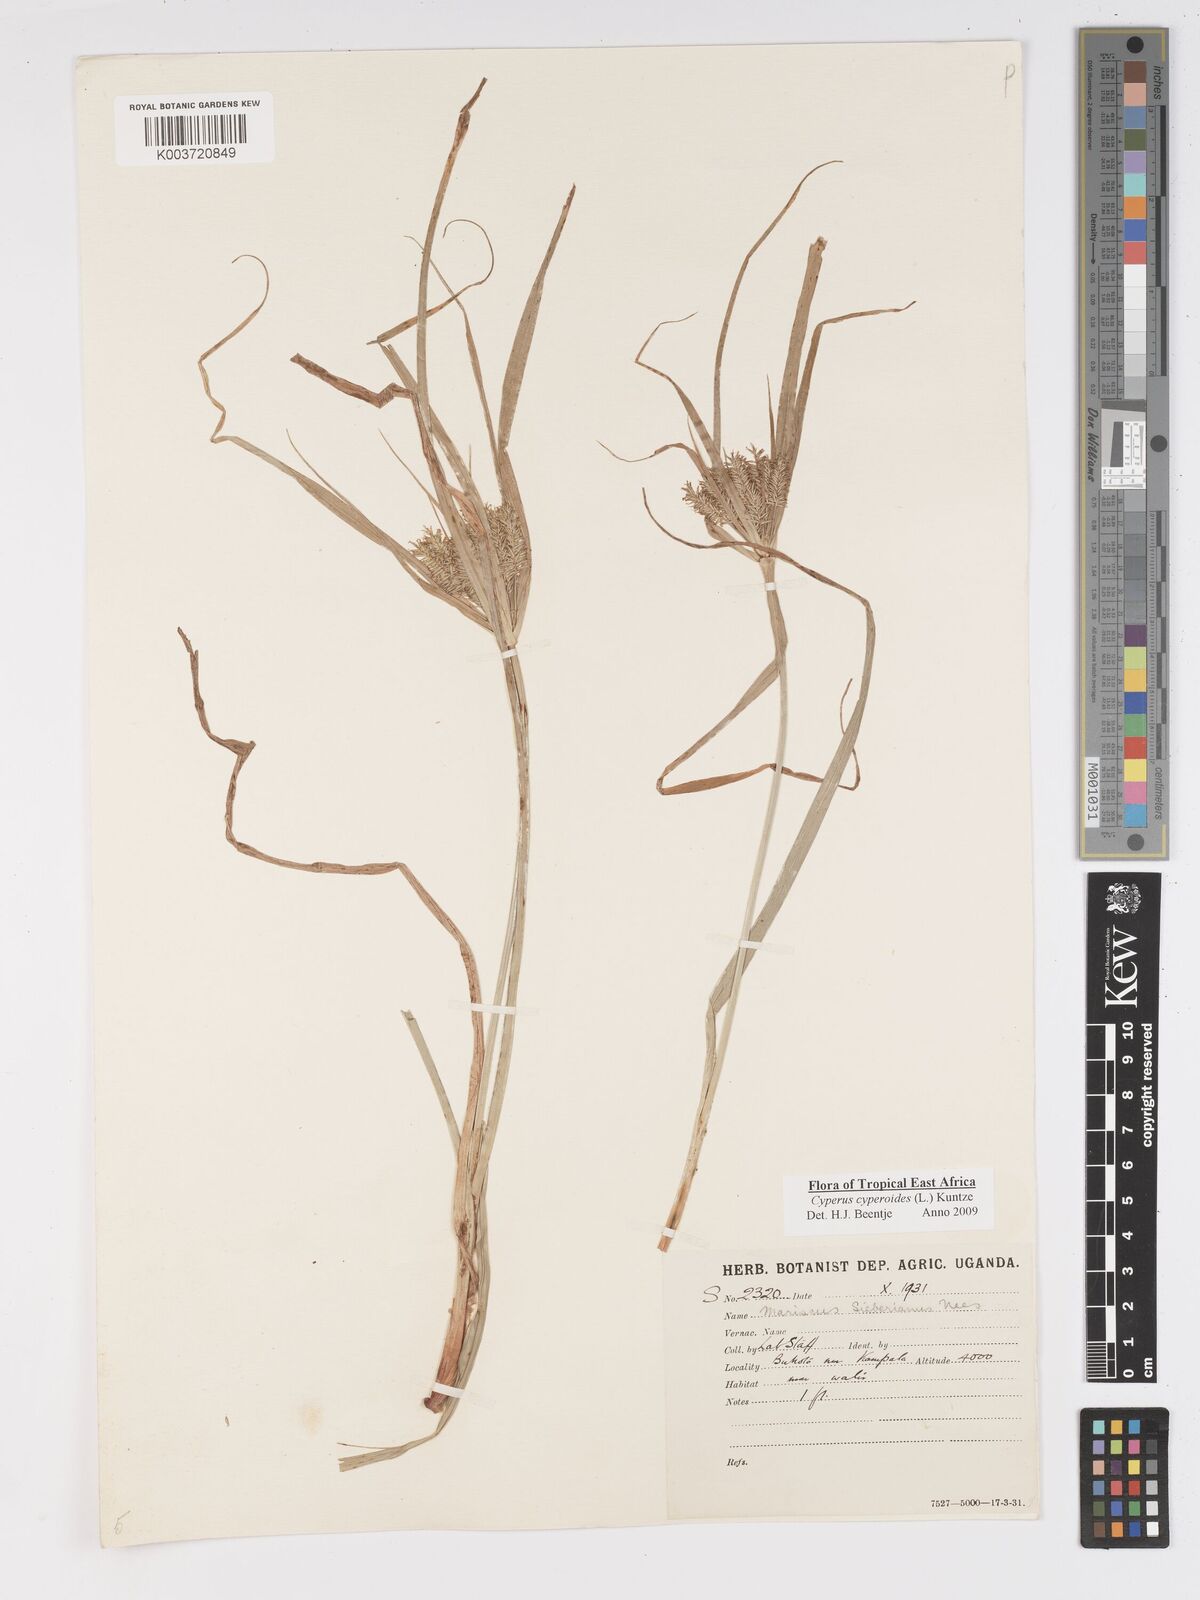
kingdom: Plantae
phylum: Tracheophyta
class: Liliopsida
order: Poales
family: Cyperaceae
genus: Cyperus
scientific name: Cyperus cyperoides
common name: Pacific island flat sedge
